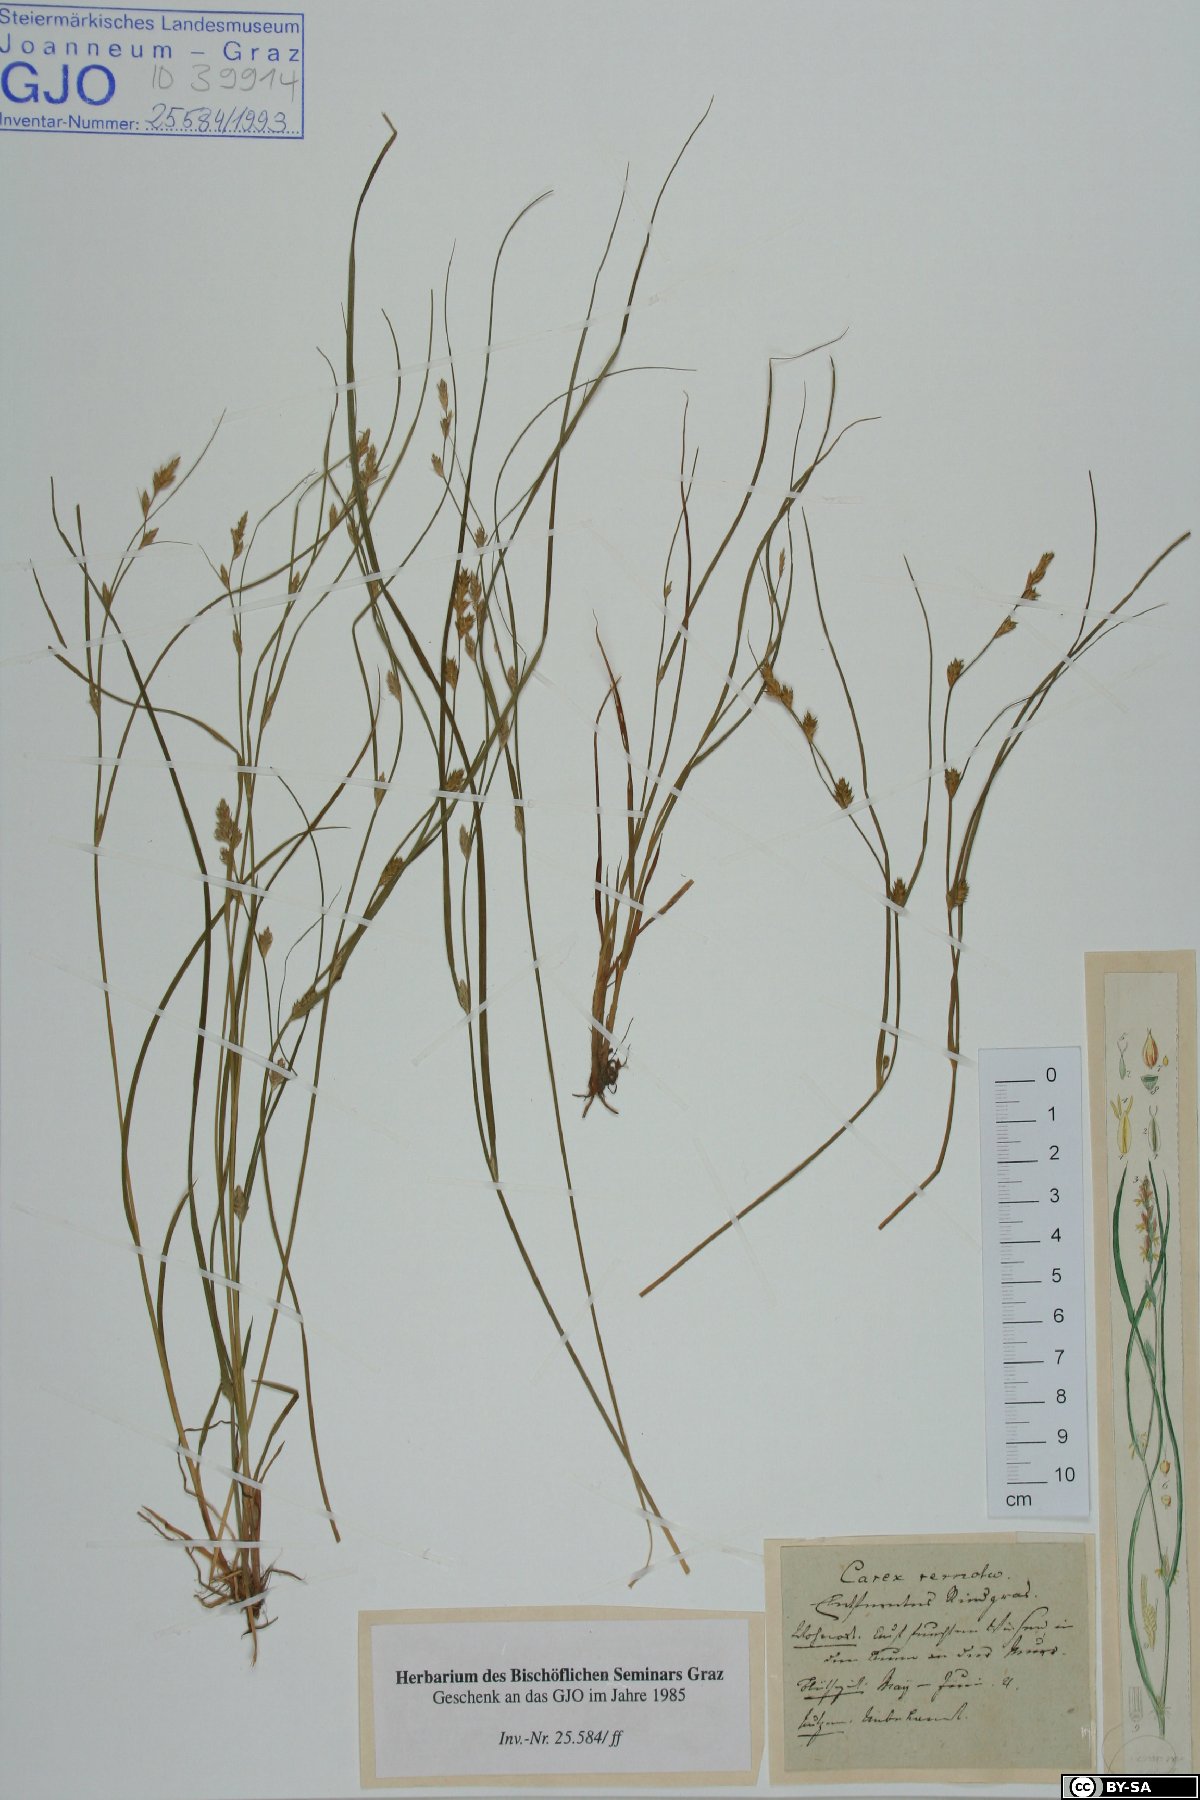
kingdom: Plantae
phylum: Tracheophyta
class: Liliopsida
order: Poales
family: Cyperaceae
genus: Carex
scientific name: Carex remota
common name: Remote sedge
